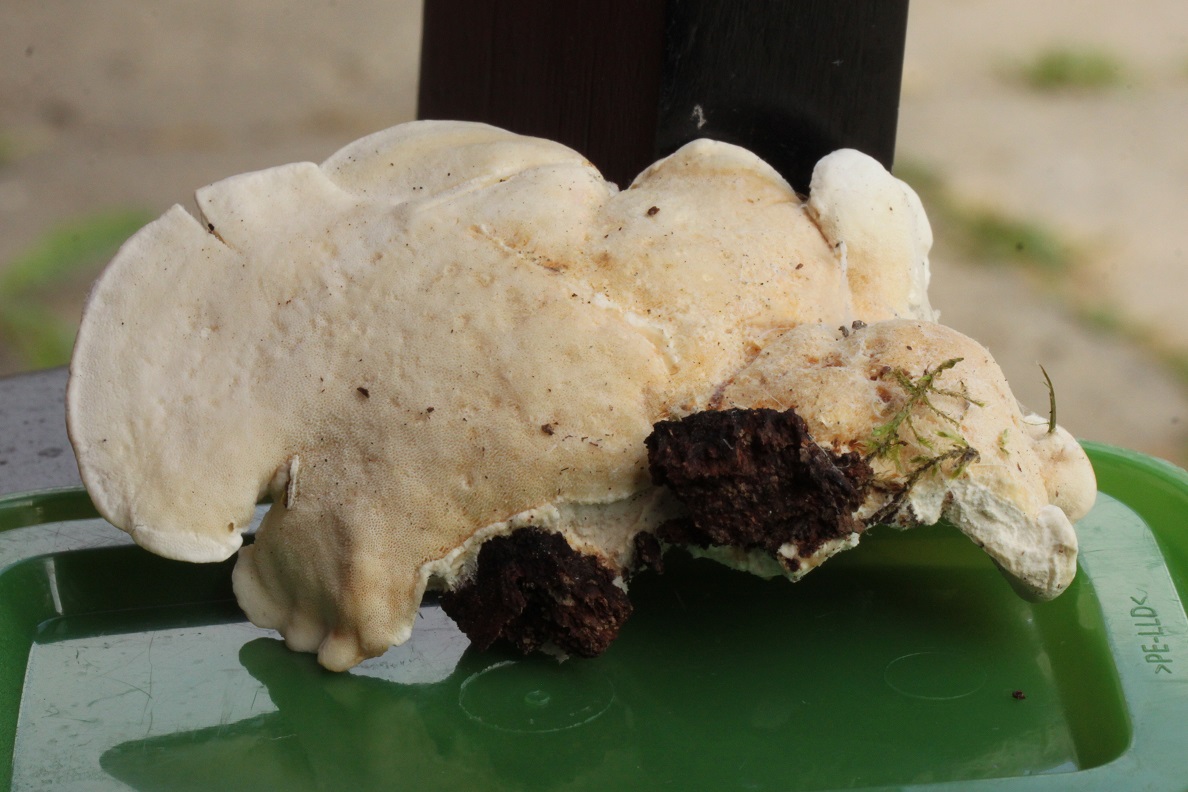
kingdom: Fungi
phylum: Basidiomycota
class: Agaricomycetes
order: Polyporales
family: Incrustoporiaceae
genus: Tyromyces
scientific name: Tyromyces chioneus
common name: stor blødporesvamp
